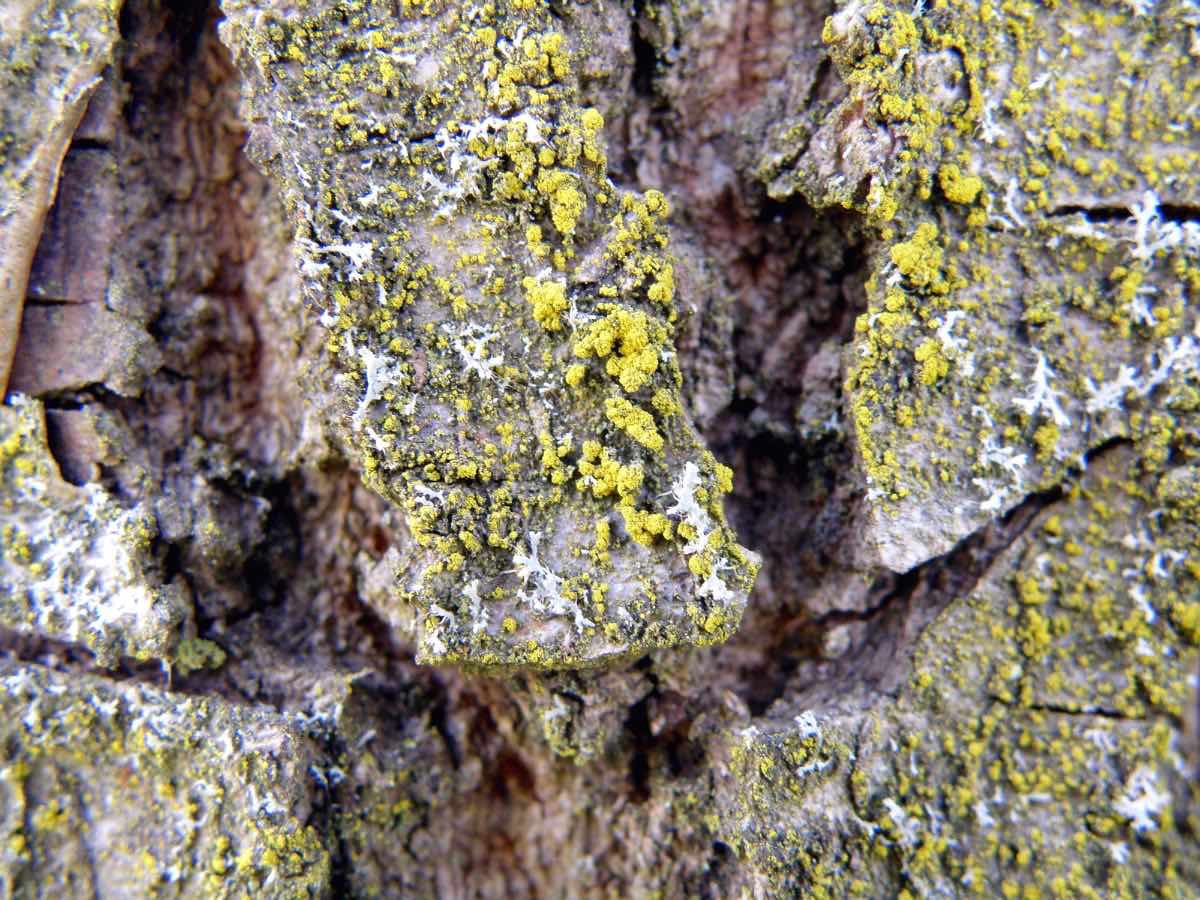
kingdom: Fungi
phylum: Ascomycota
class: Candelariomycetes
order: Candelariales
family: Candelariaceae
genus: Candelariella
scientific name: Candelariella efflorescens
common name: støv-æggeblommelav
